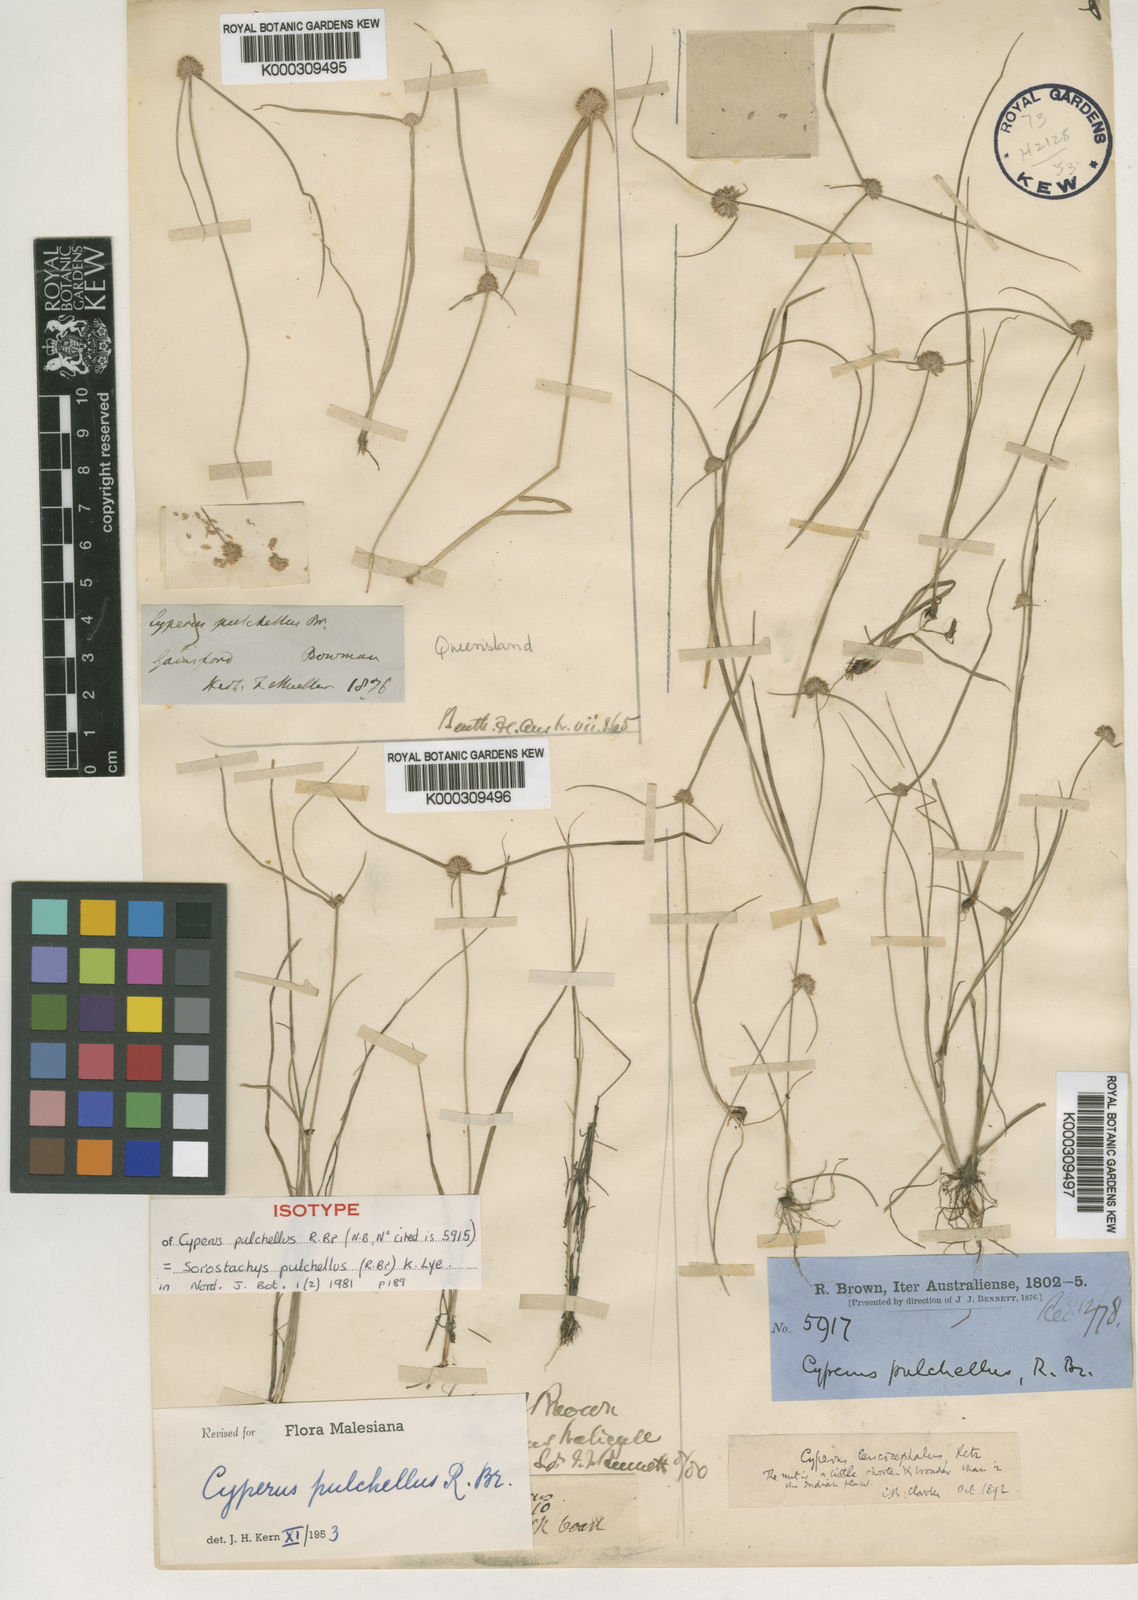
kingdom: Plantae
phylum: Tracheophyta
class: Liliopsida
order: Poales
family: Cyperaceae
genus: Cyperus
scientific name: Cyperus pulchellus
